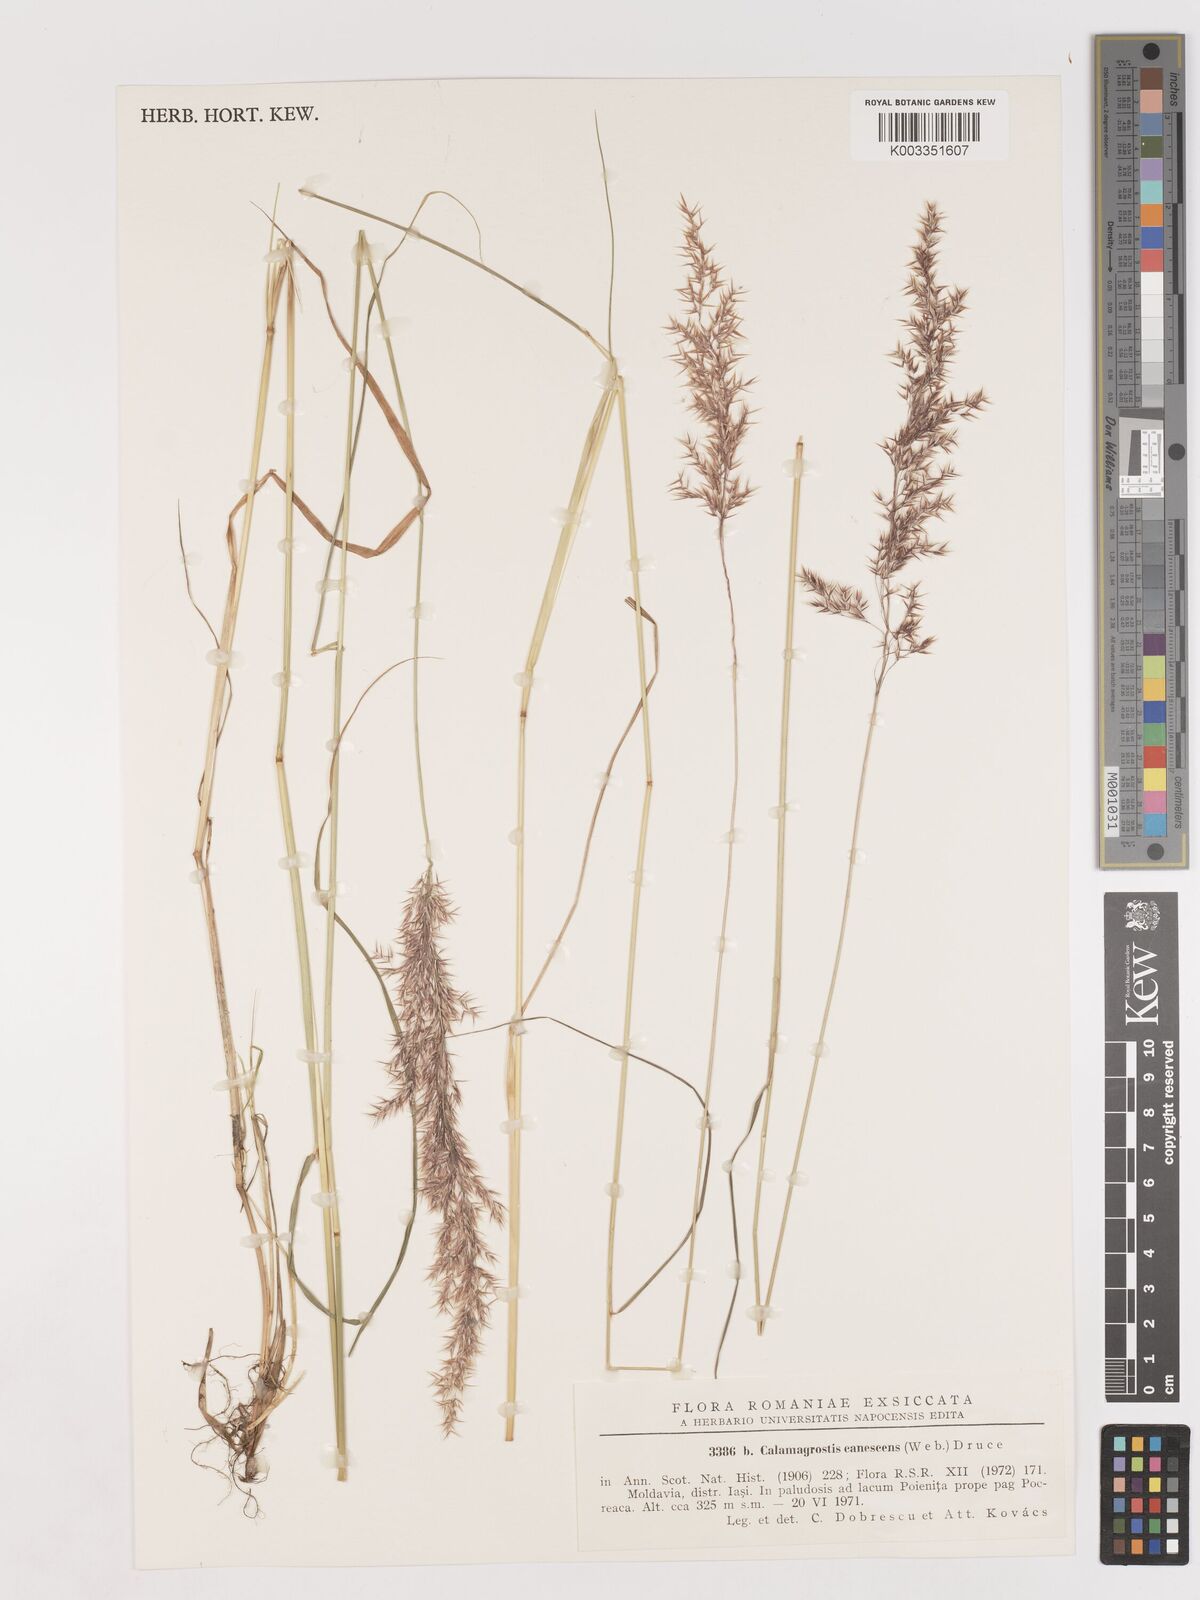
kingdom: Plantae
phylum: Tracheophyta
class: Liliopsida
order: Poales
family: Poaceae
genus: Calamagrostis
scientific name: Calamagrostis canescens
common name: Purple small-reed
